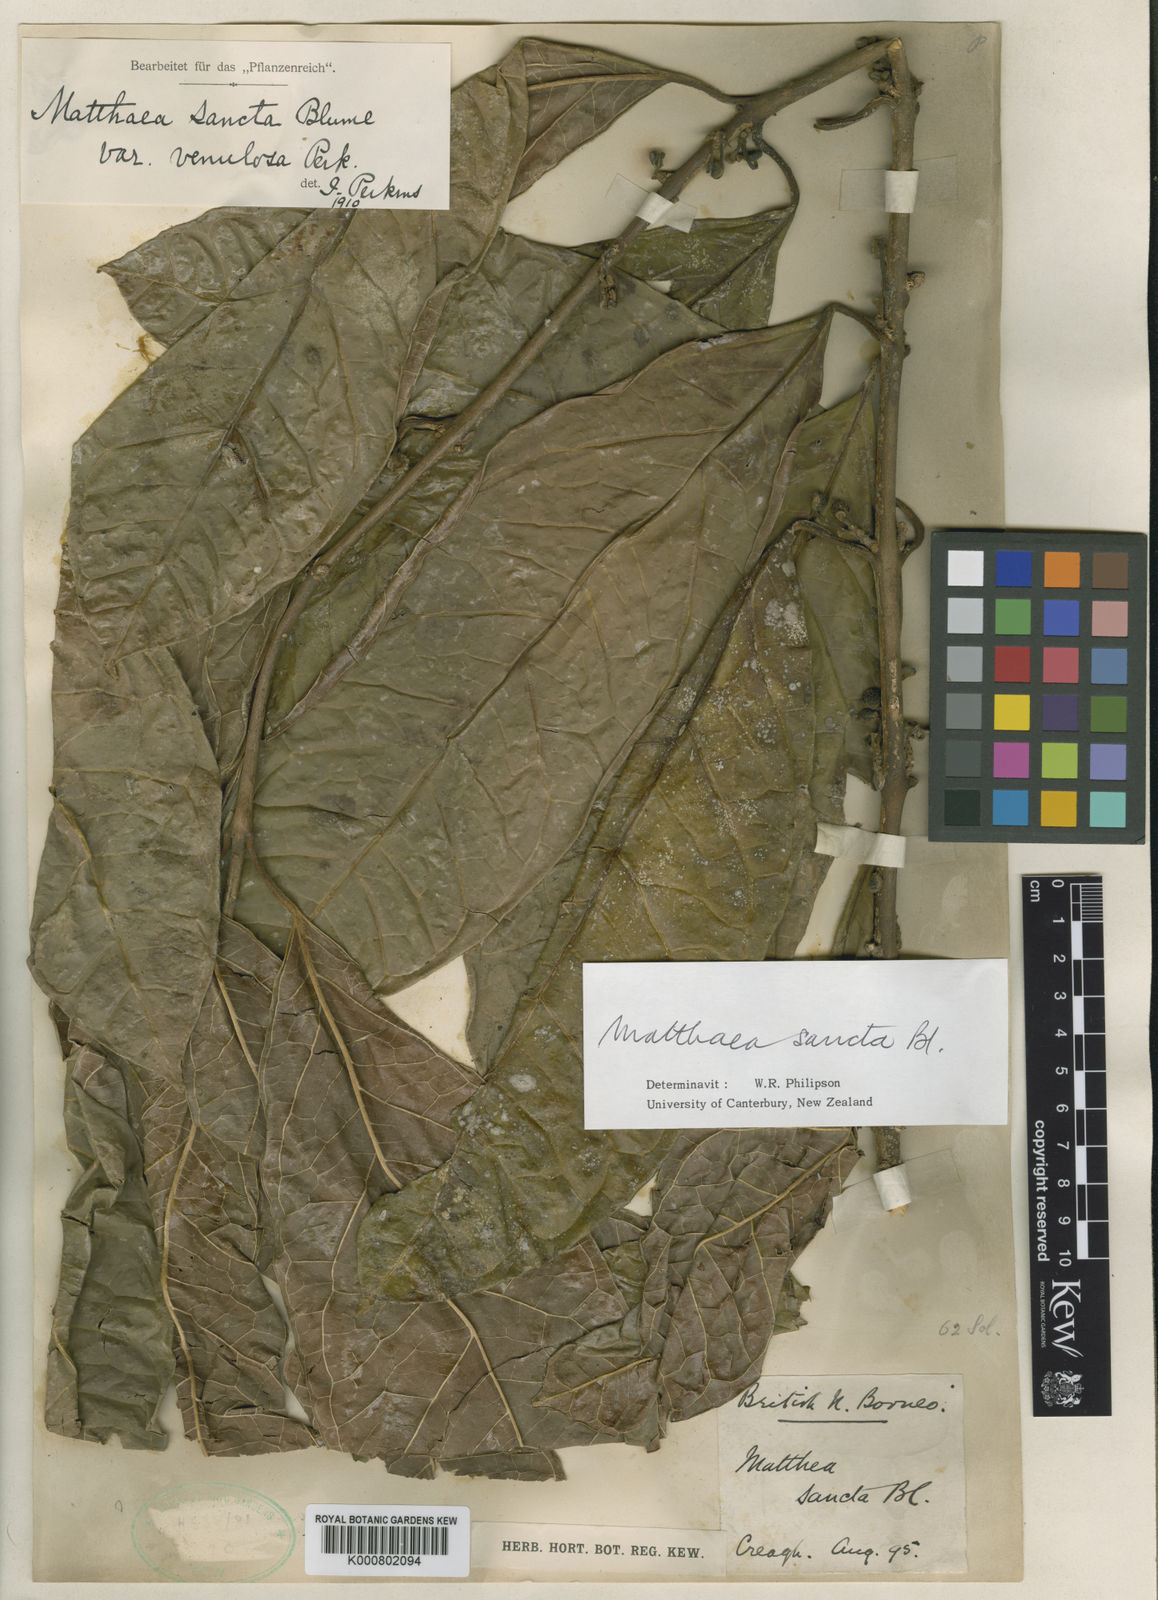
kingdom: Plantae
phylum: Tracheophyta
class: Magnoliopsida
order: Laurales
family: Monimiaceae
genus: Matthaea
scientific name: Matthaea sancta
